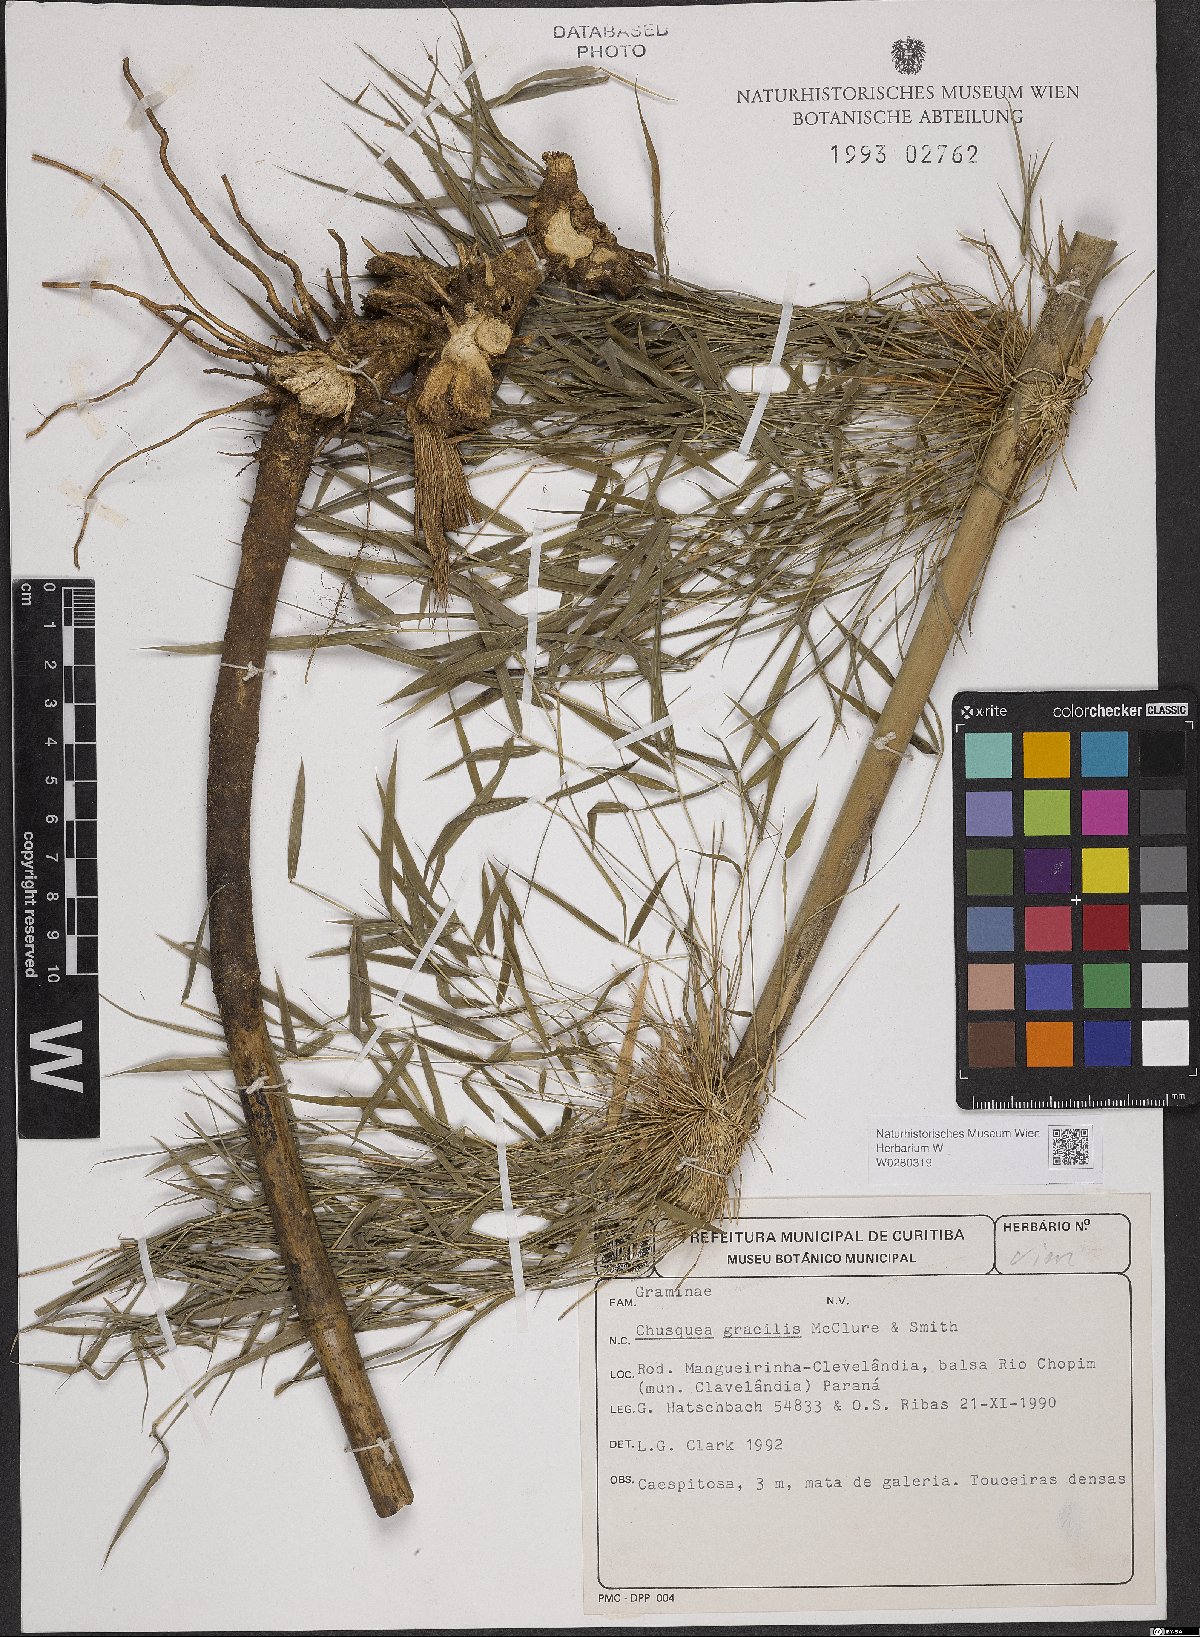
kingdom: Plantae
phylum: Tracheophyta
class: Liliopsida
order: Poales
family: Poaceae
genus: Chusquea
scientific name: Chusquea gracilis
